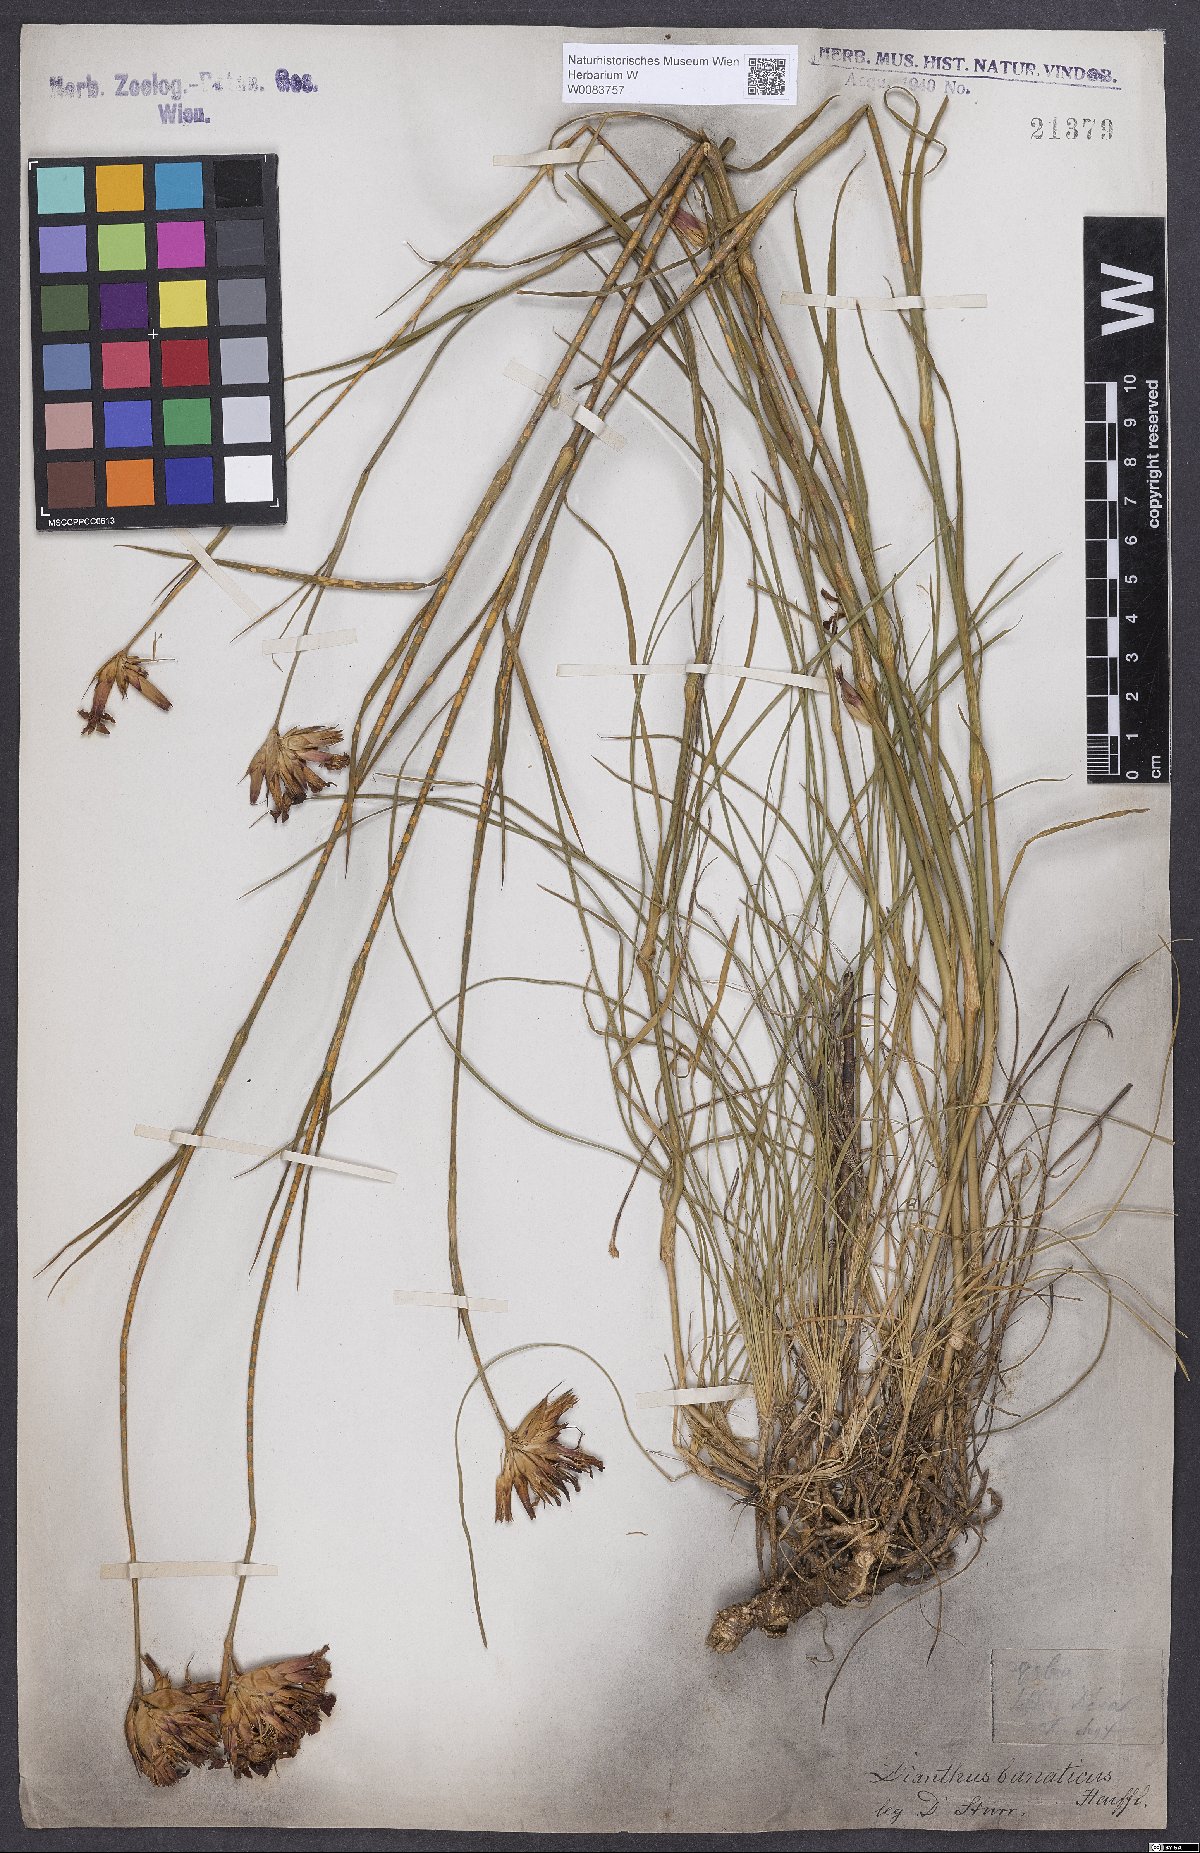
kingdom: Plantae
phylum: Tracheophyta
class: Magnoliopsida
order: Caryophyllales
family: Caryophyllaceae
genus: Dianthus
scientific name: Dianthus giganteus
